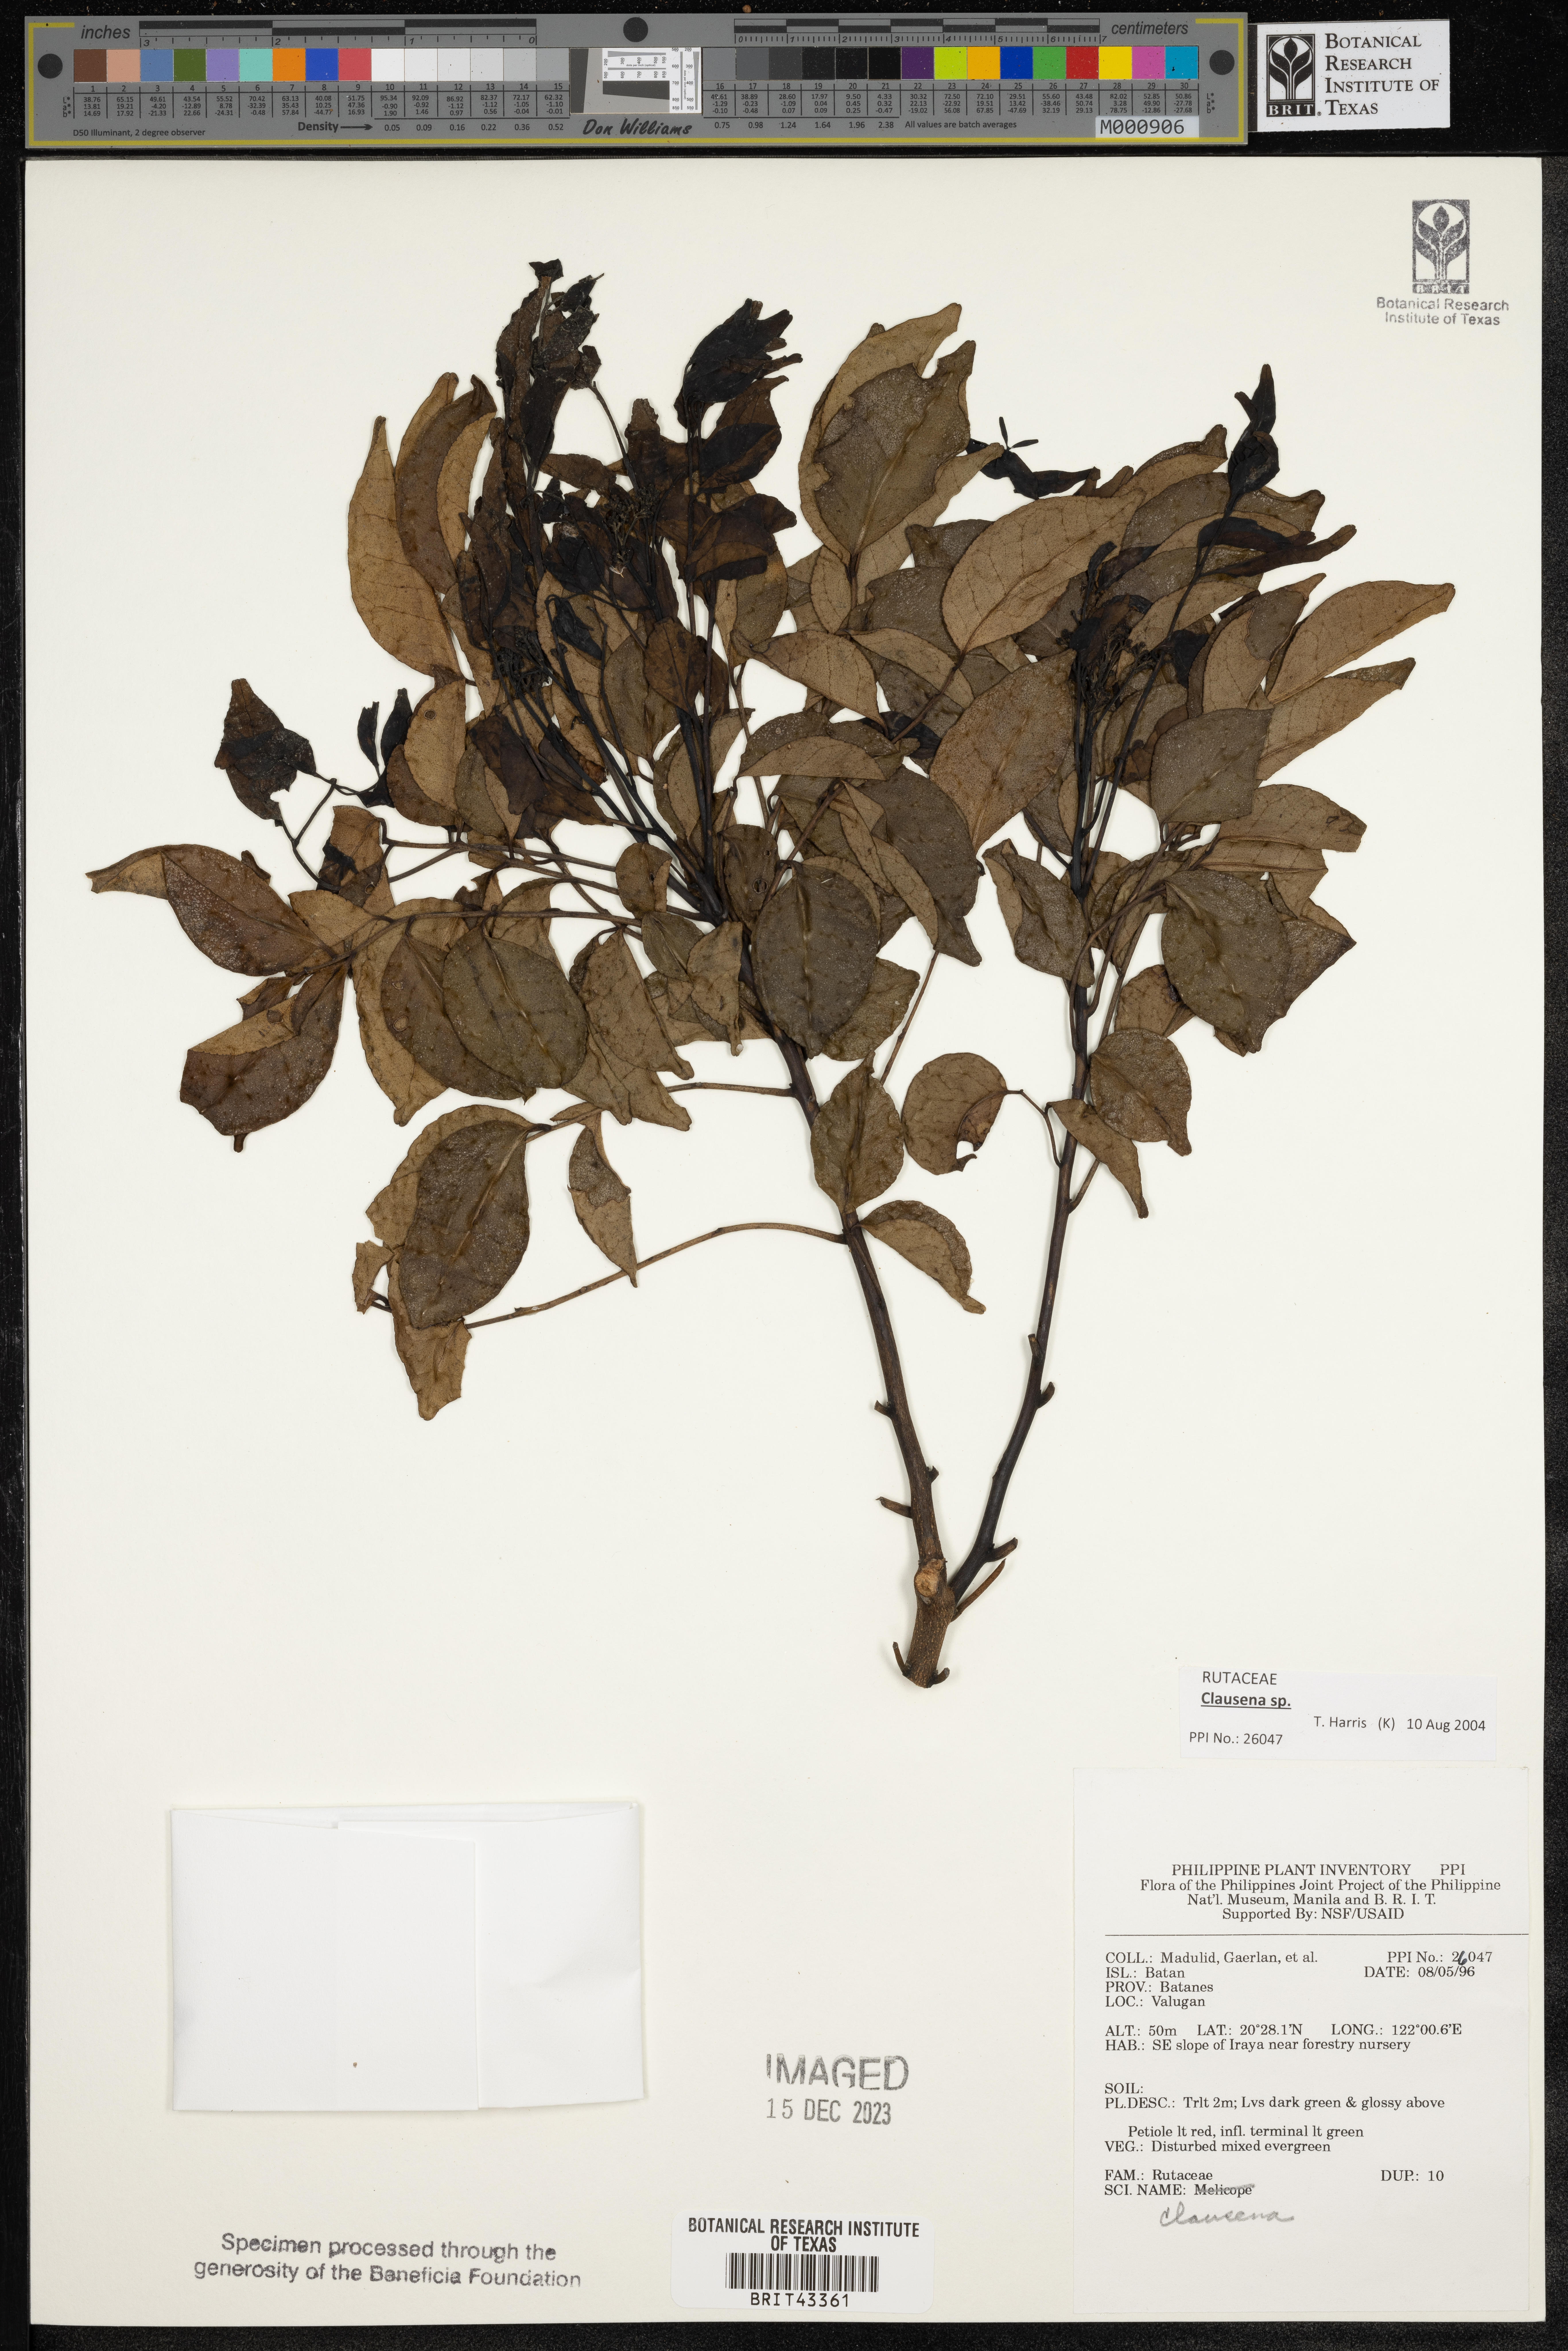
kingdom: Plantae
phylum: Tracheophyta
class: Magnoliopsida
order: Sapindales
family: Rutaceae
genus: Clausena
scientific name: Clausena
